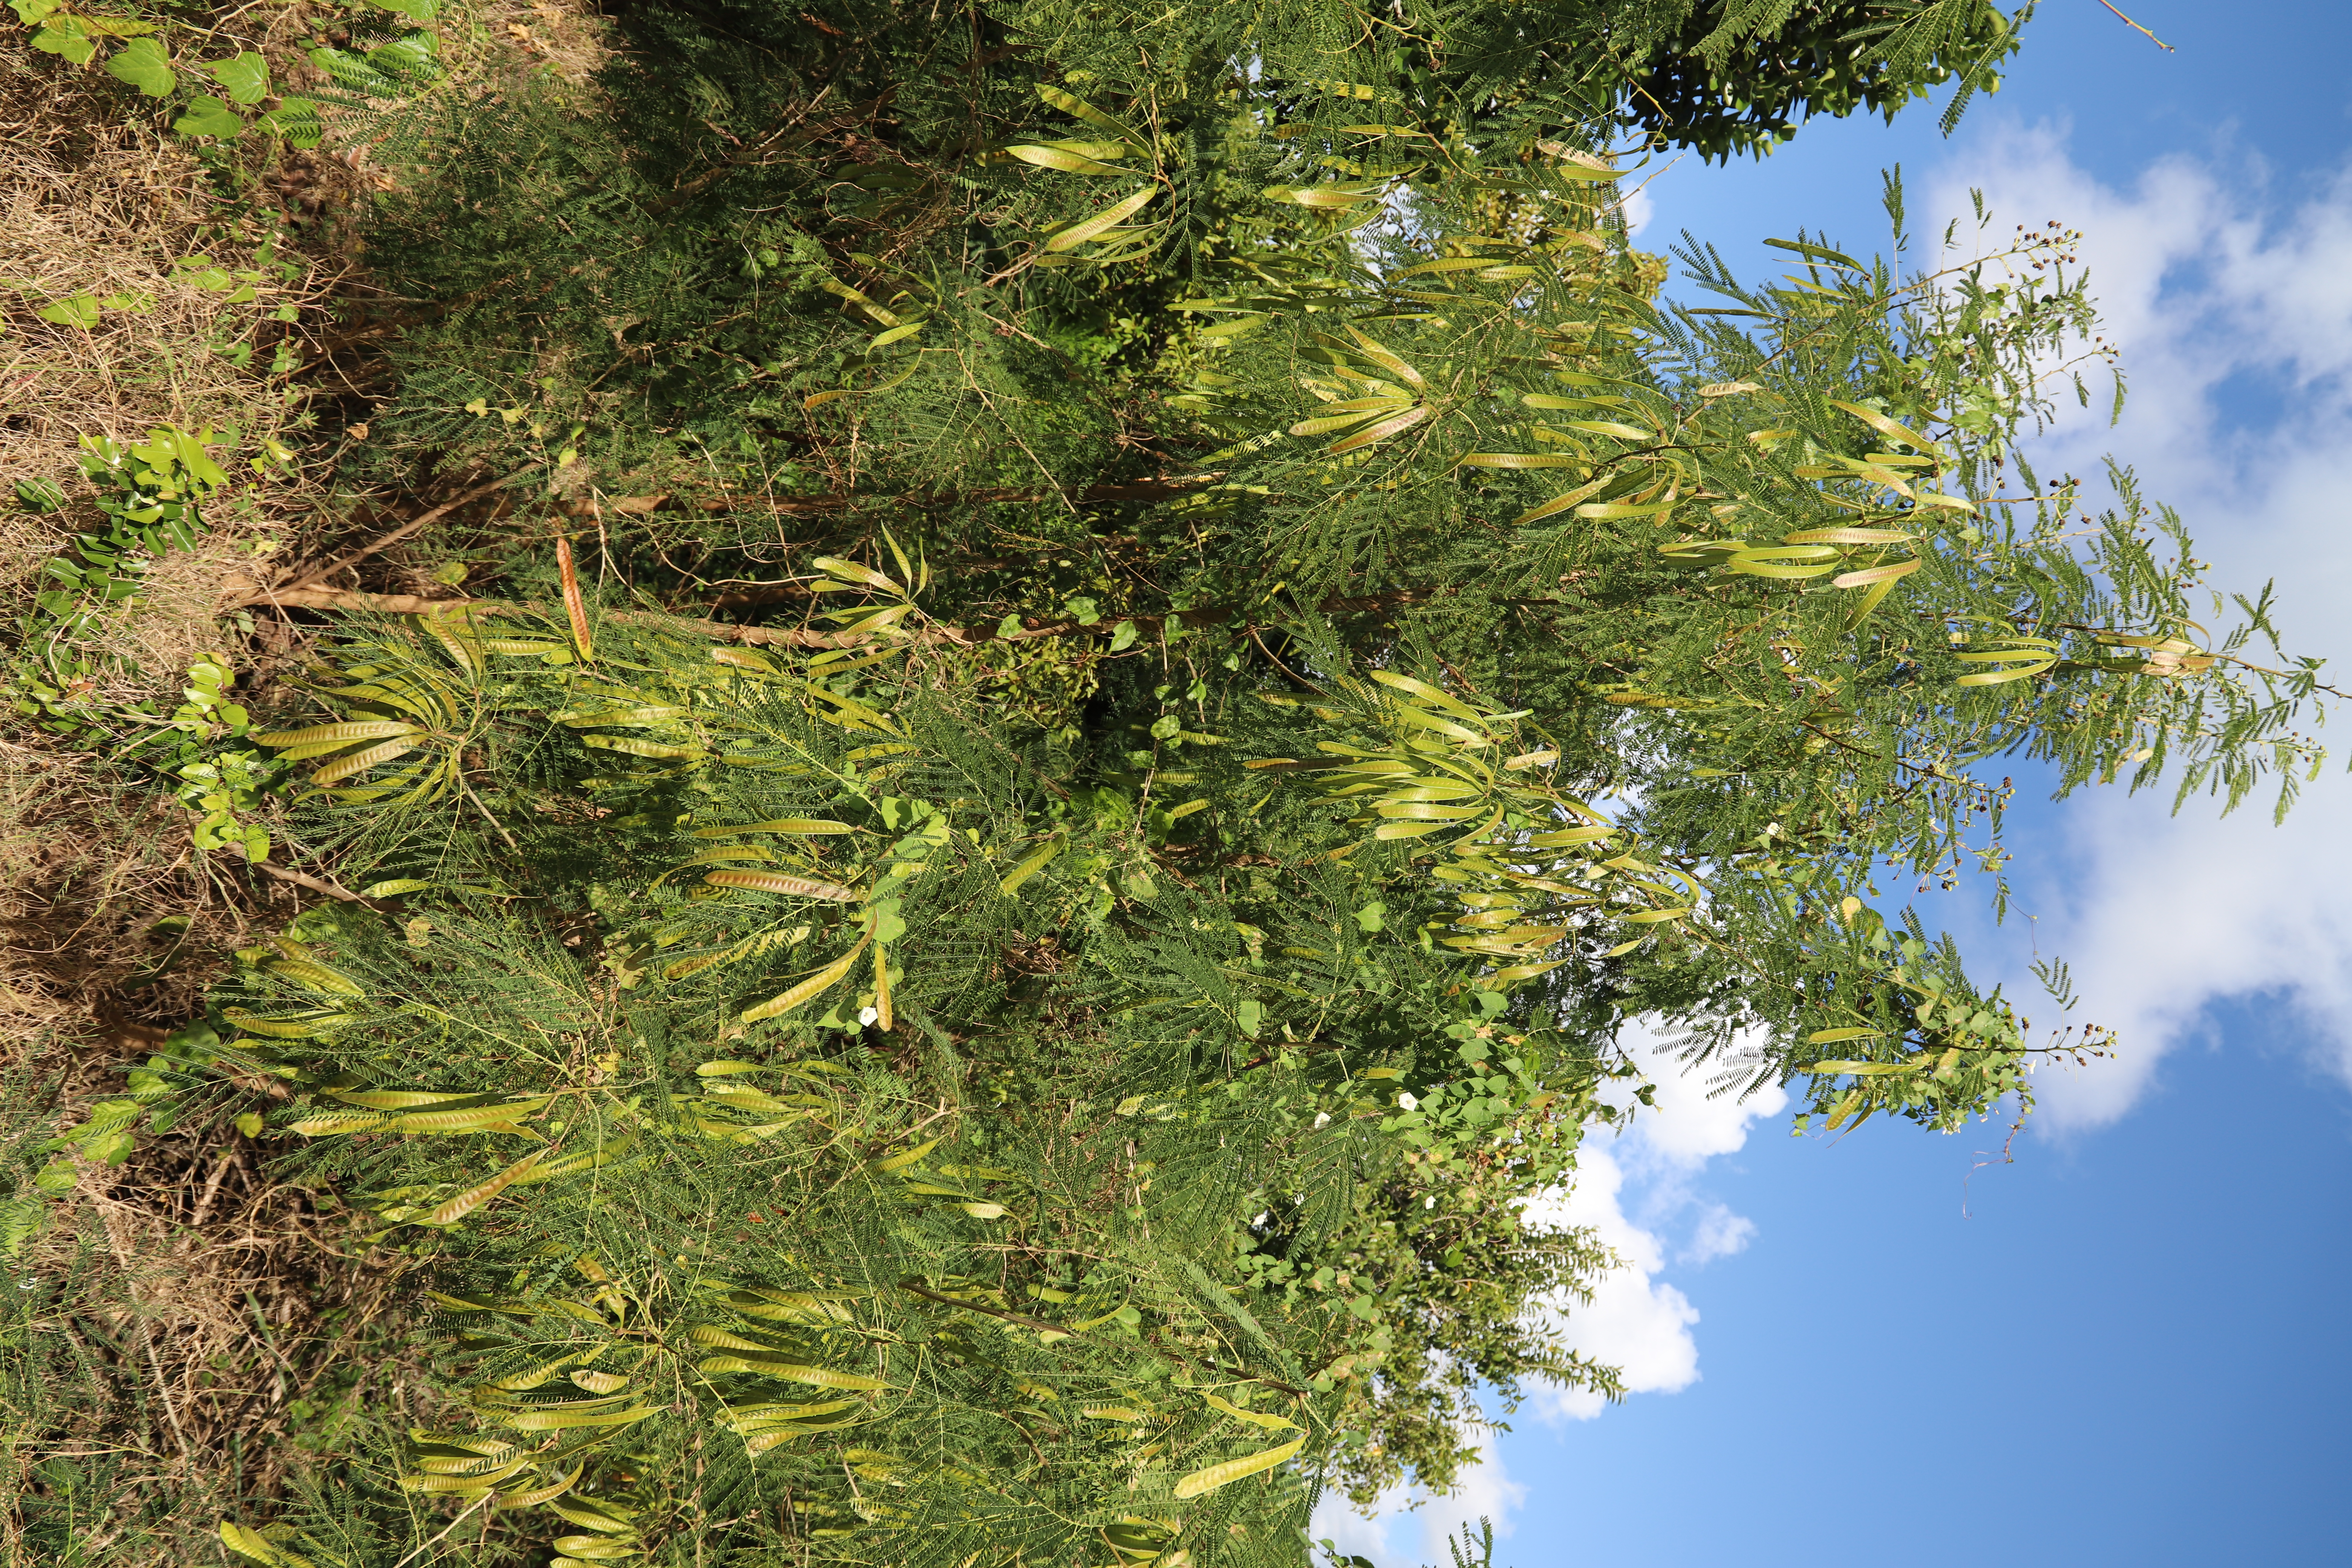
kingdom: Plantae
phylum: Tracheophyta
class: Magnoliopsida
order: Fabales
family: Fabaceae
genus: Leucaena
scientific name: Leucaena leucocephala
